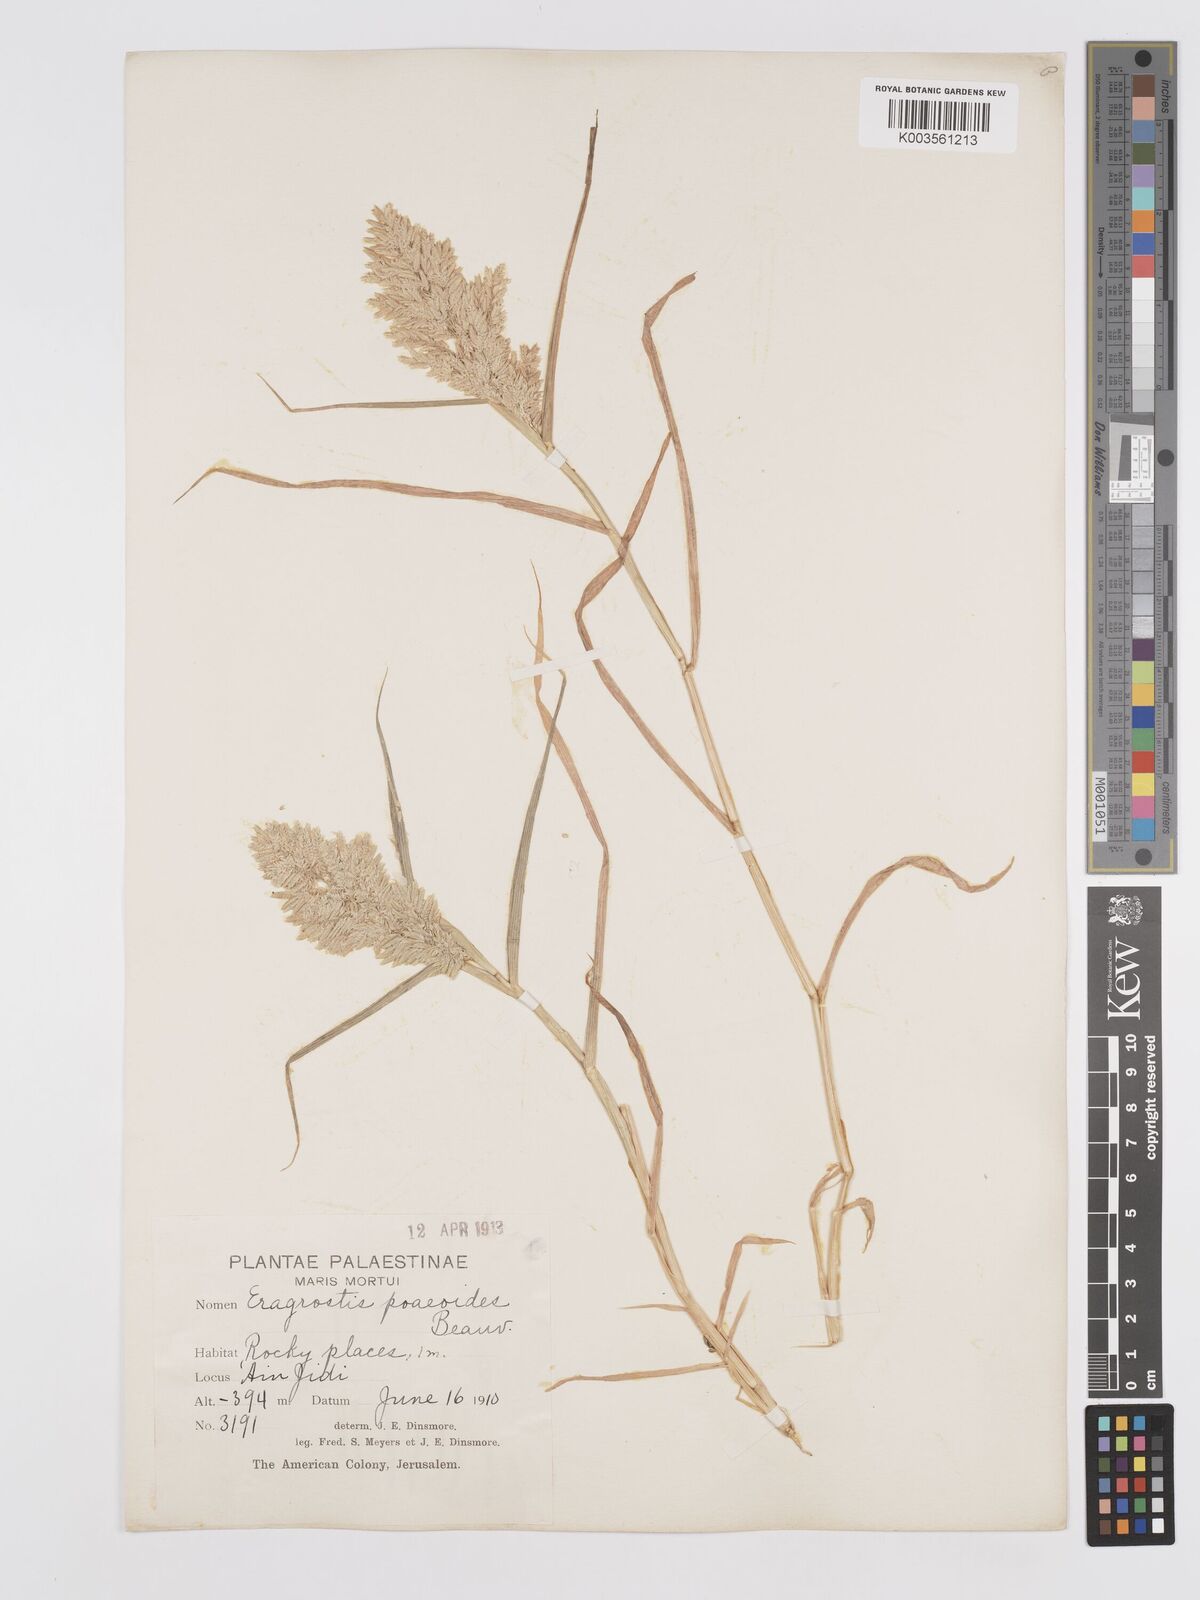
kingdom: Plantae
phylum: Tracheophyta
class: Liliopsida
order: Poales
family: Poaceae
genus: Eragrostis
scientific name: Eragrostis cilianensis
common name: Stinkgrass
